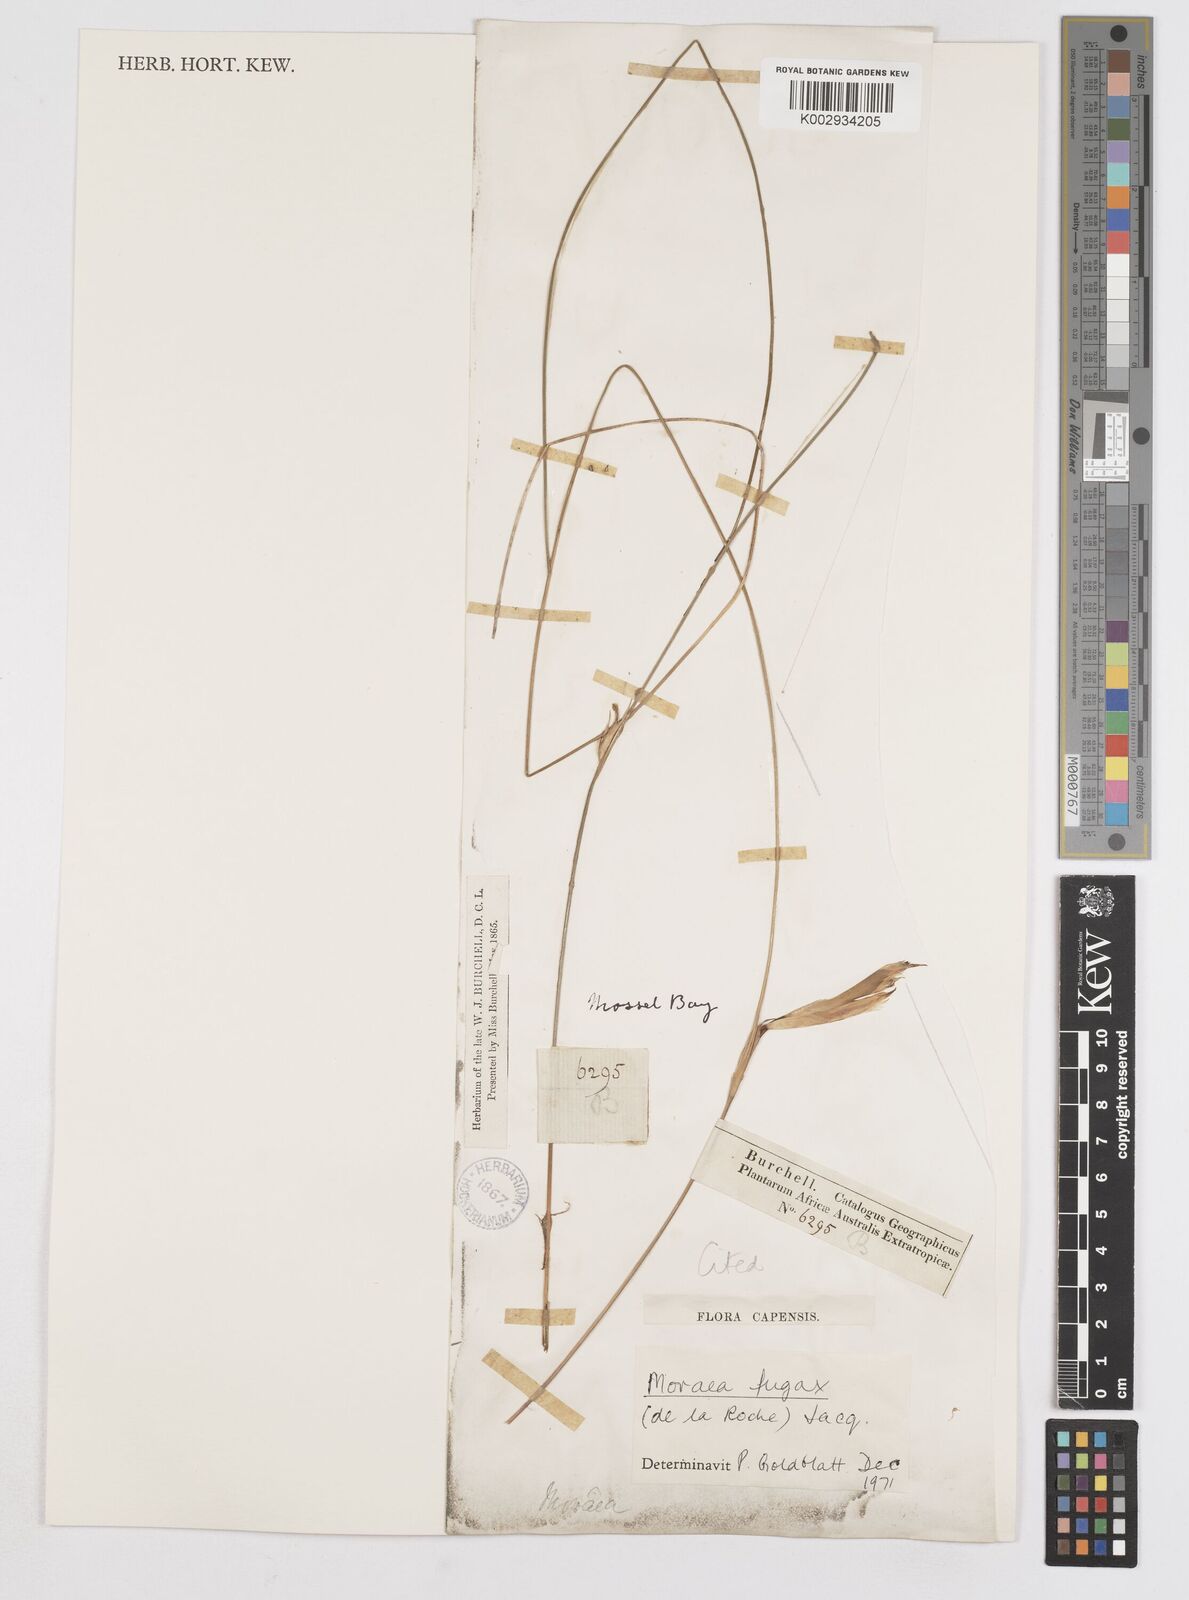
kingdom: Plantae
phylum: Tracheophyta
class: Liliopsida
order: Asparagales
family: Iridaceae
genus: Moraea
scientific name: Moraea fugax
